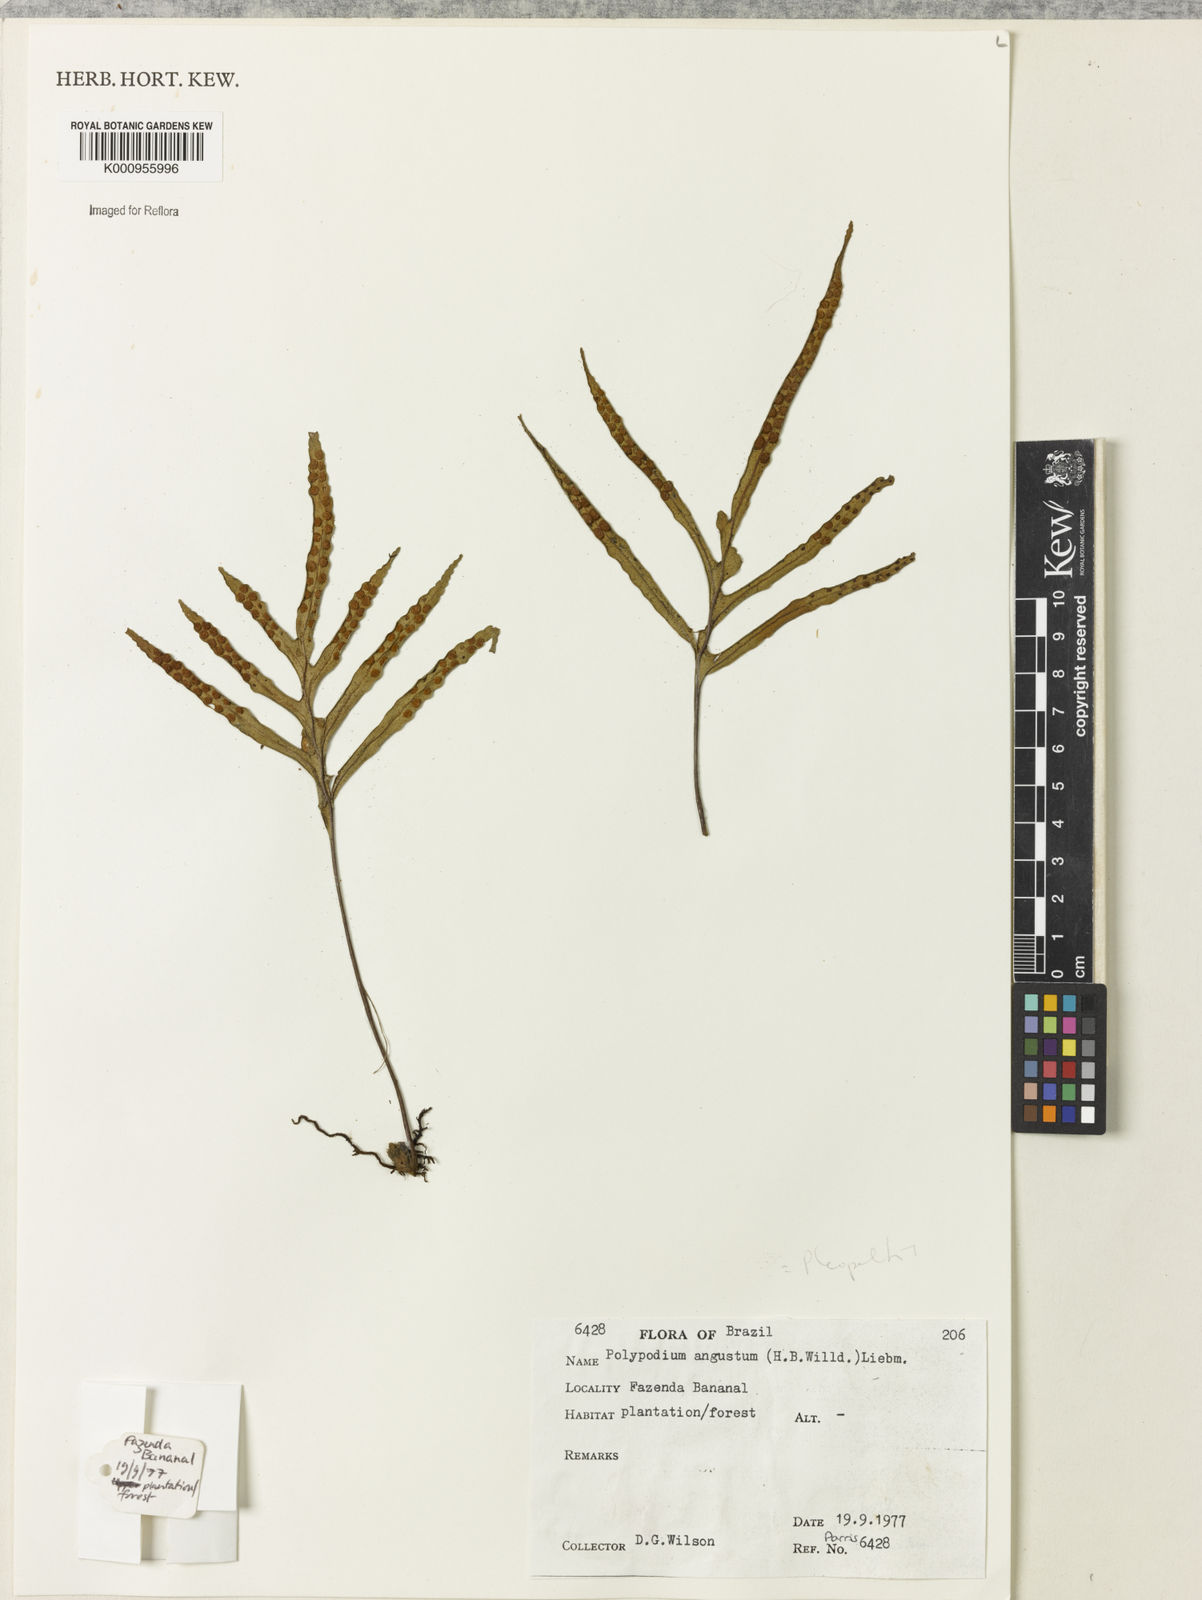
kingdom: Plantae
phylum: Tracheophyta
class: Polypodiopsida
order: Polypodiales
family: Polypodiaceae
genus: Pleopeltis
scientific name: Pleopeltis angusta
